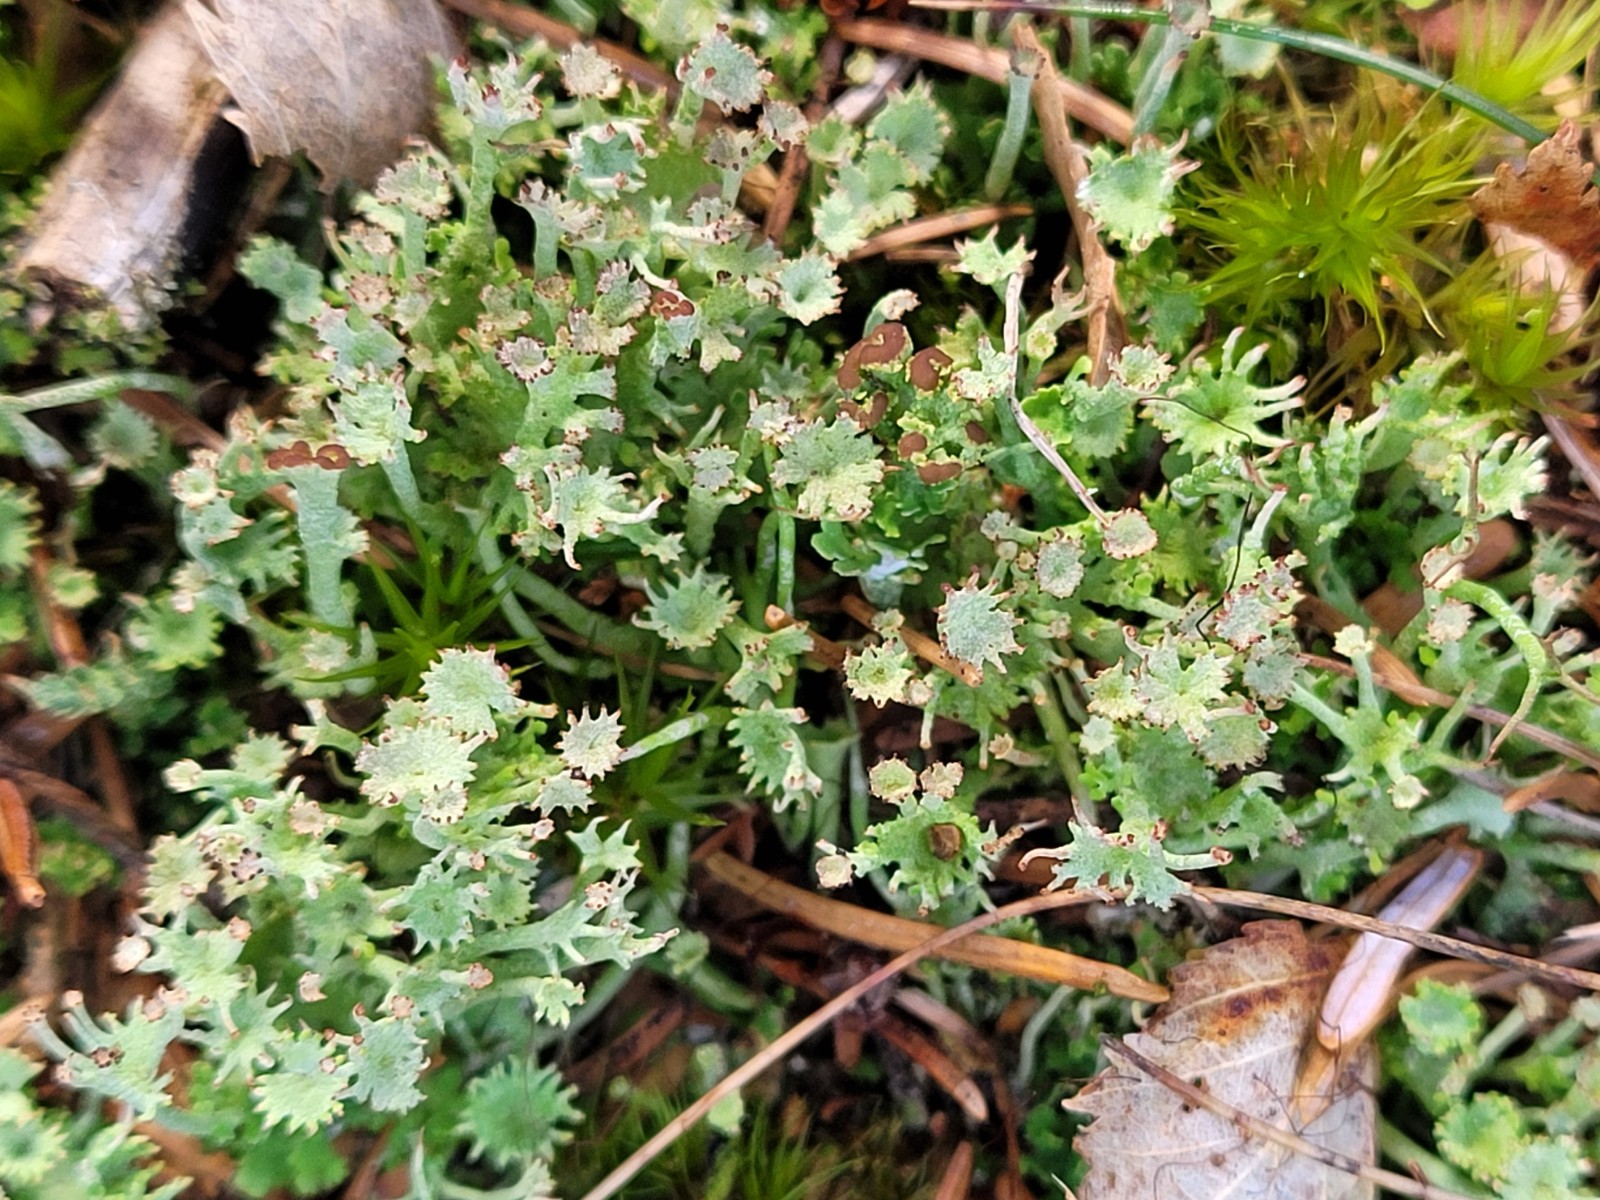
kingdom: Fungi
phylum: Ascomycota
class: Lecanoromycetes
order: Lecanorales
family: Cladoniaceae
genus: Cladonia
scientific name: Cladonia ramulosa
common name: kliddet bægerlav
